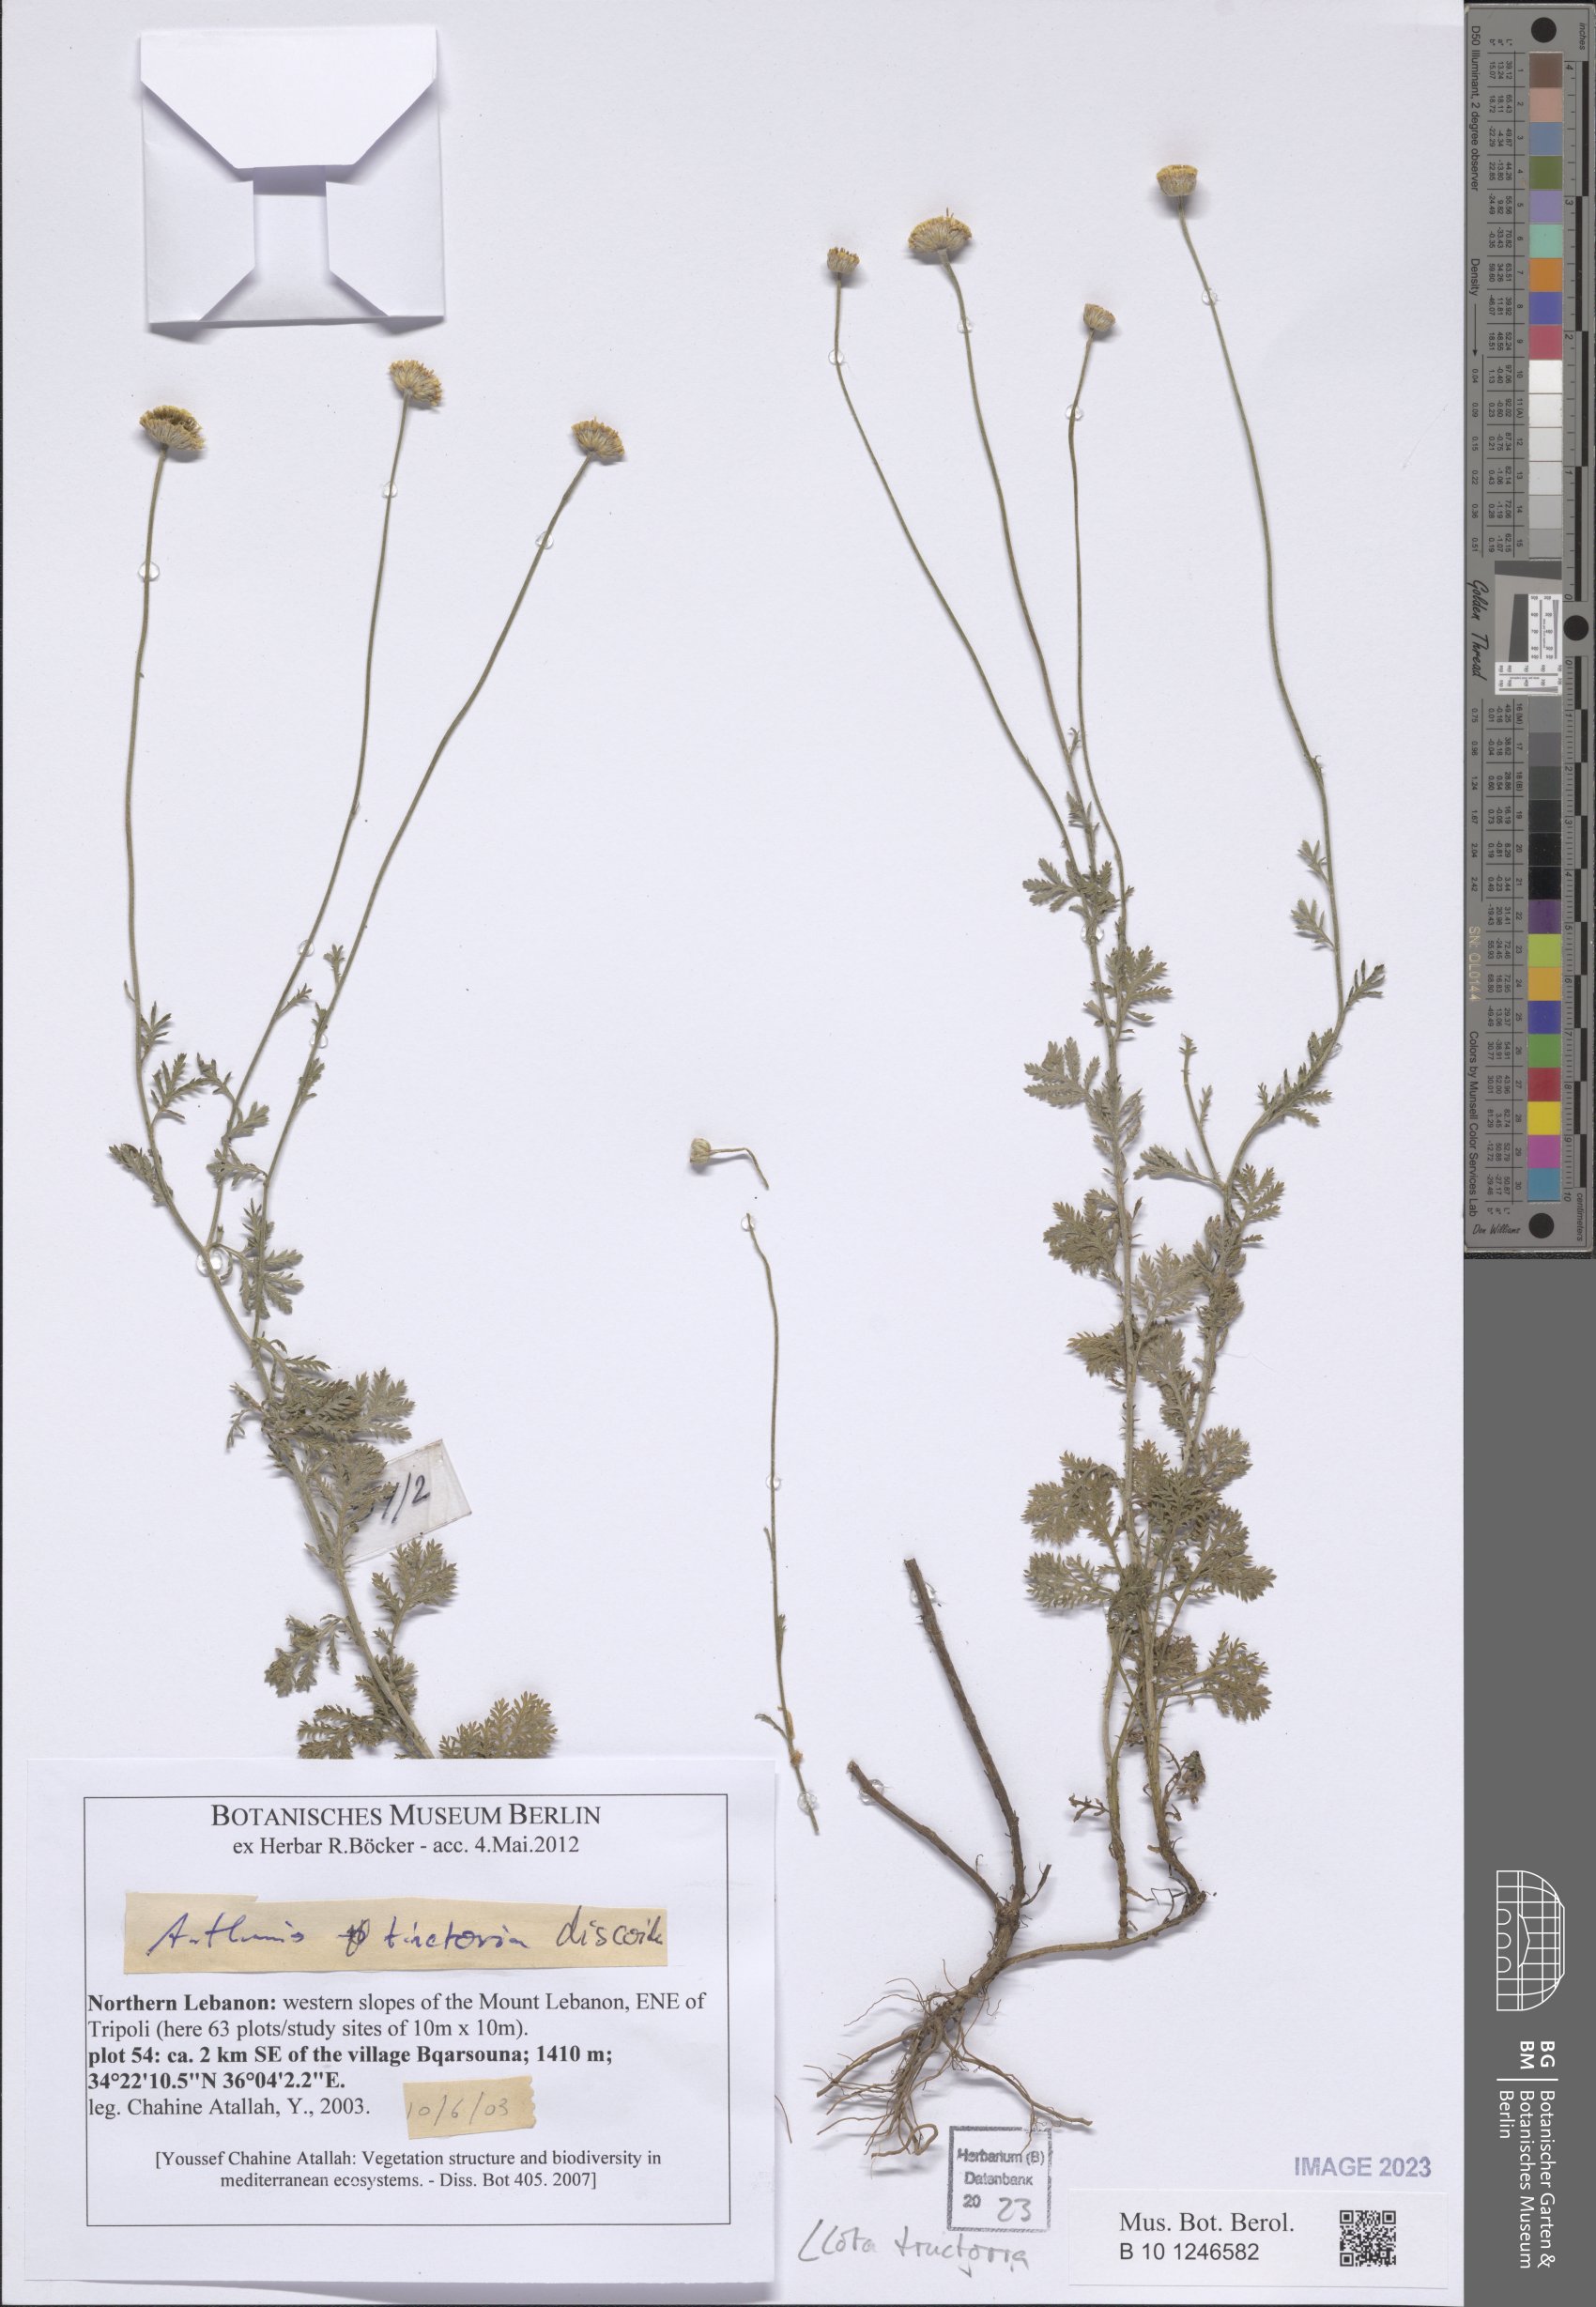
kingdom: Plantae
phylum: Tracheophyta
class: Magnoliopsida
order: Asterales
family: Asteraceae
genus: Cota
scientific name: Cota tinctoria
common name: Golden chamomile
